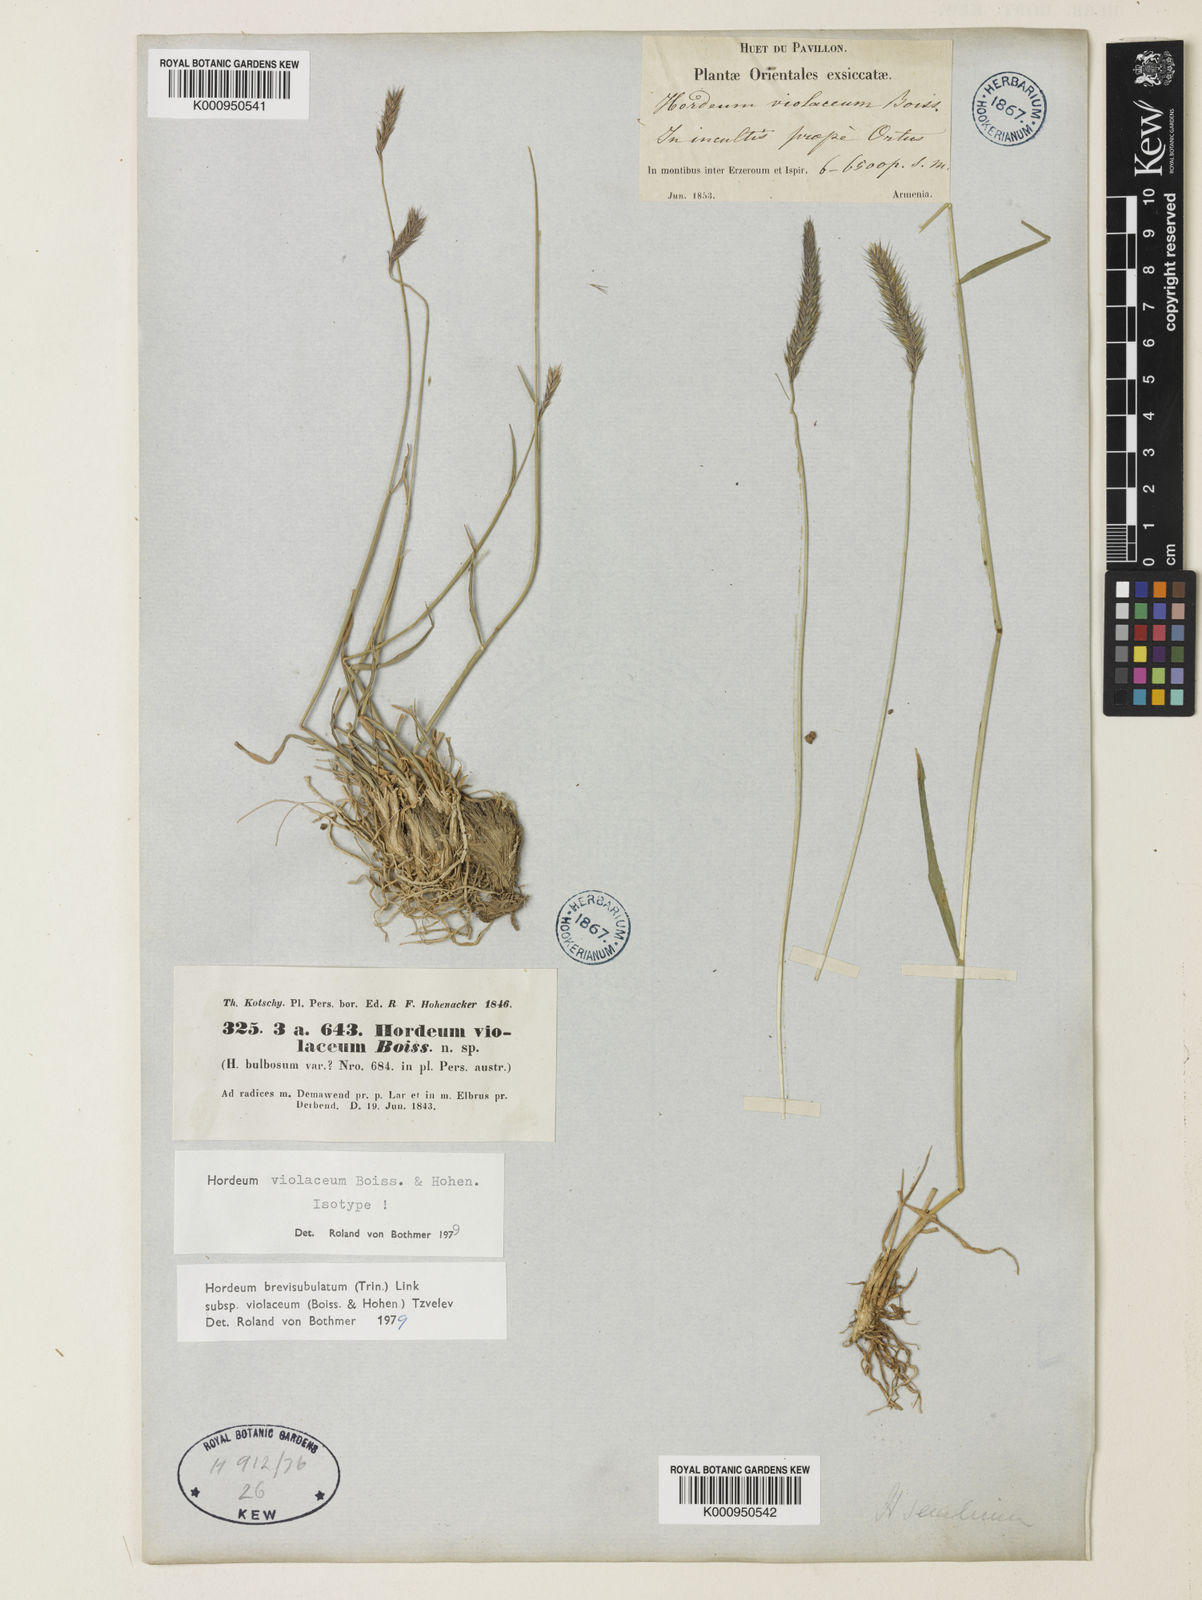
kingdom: Plantae
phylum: Tracheophyta
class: Liliopsida
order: Poales
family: Poaceae
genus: Hordeum
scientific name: Hordeum brevisubulatum
